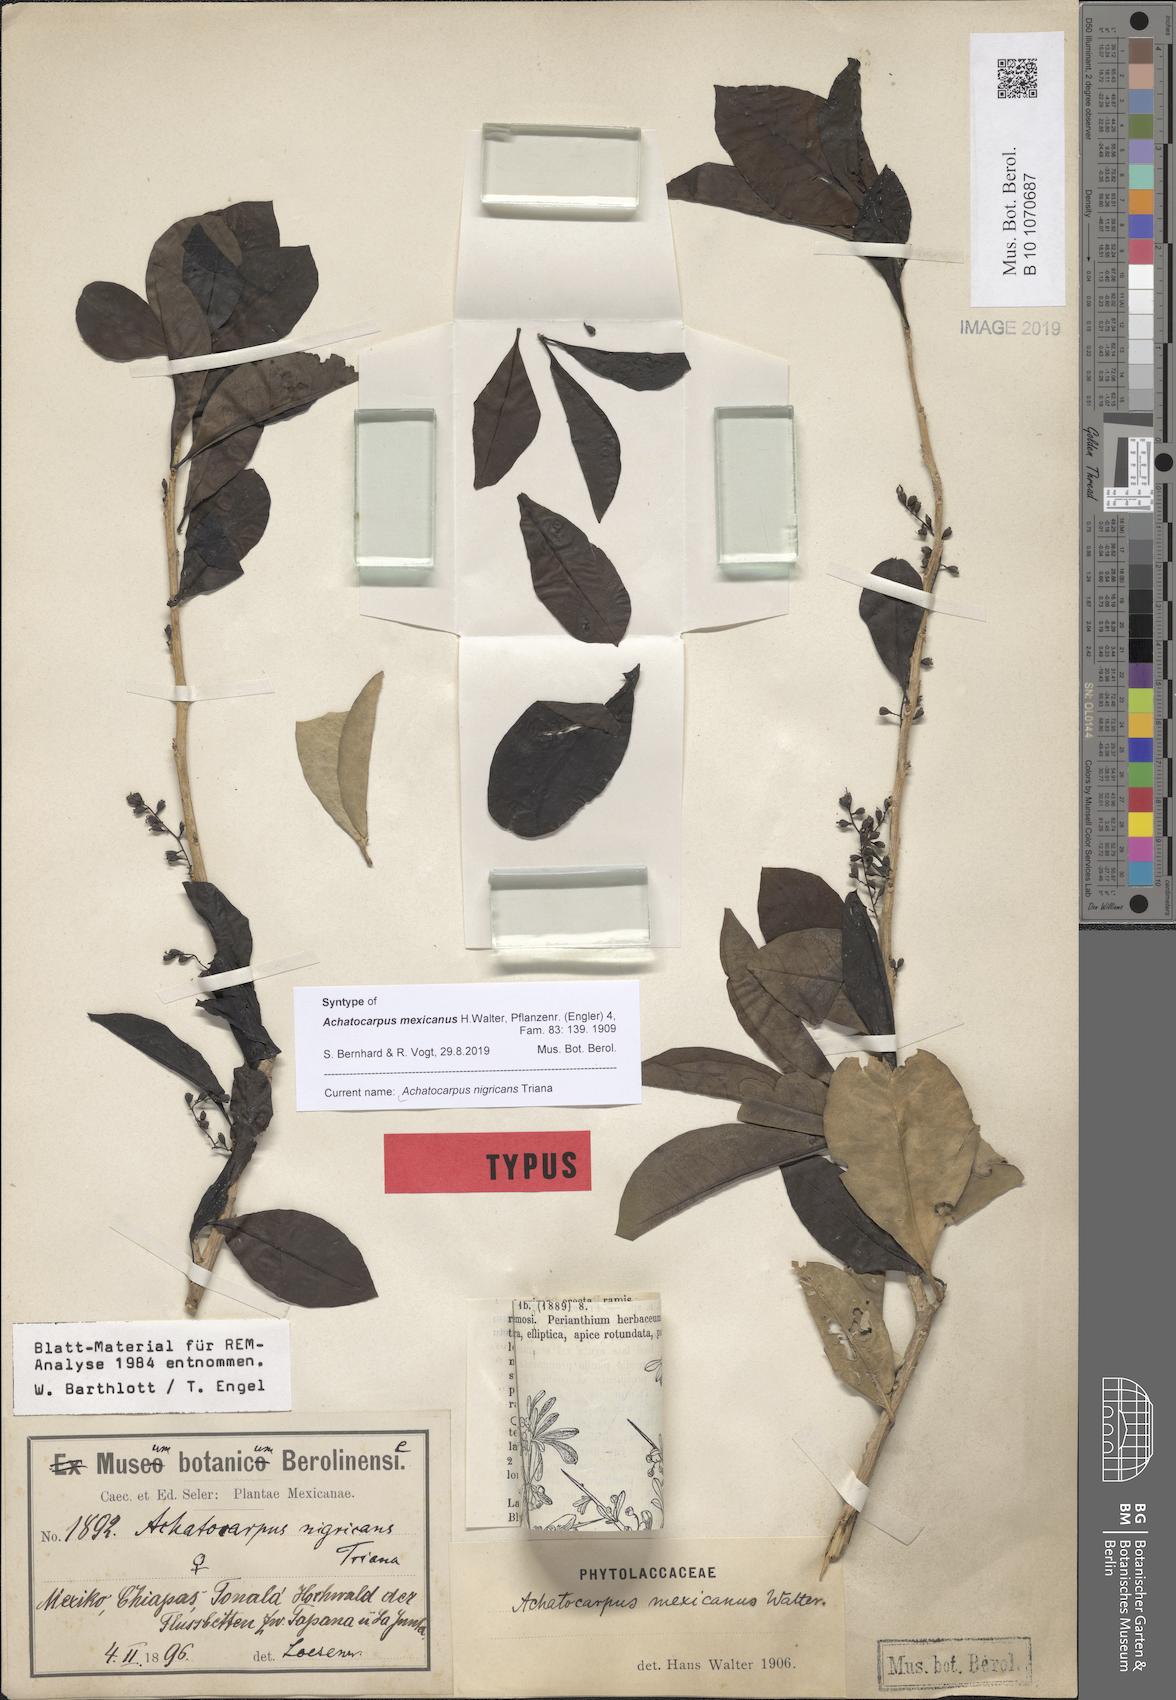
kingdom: Plantae
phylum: Tracheophyta
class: Magnoliopsida
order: Caryophyllales
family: Achatocarpaceae
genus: Achatocarpus
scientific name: Achatocarpus nigricans
